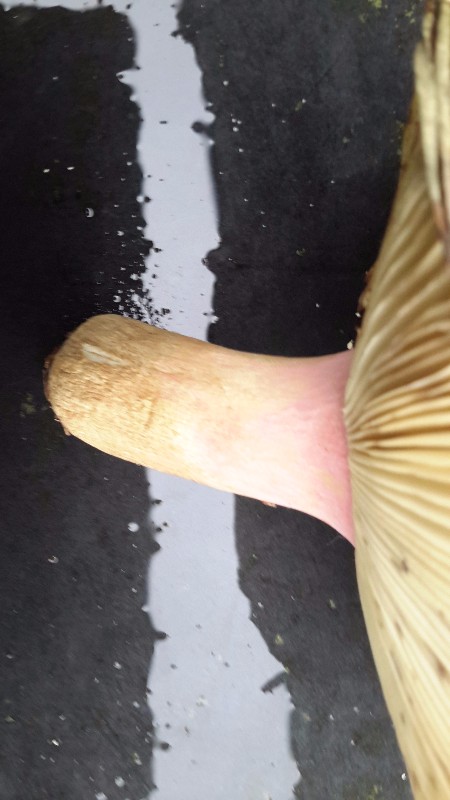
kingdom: Fungi
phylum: Basidiomycota
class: Agaricomycetes
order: Russulales
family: Russulaceae
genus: Russula
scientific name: Russula xerampelina
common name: hummer-skørhat
